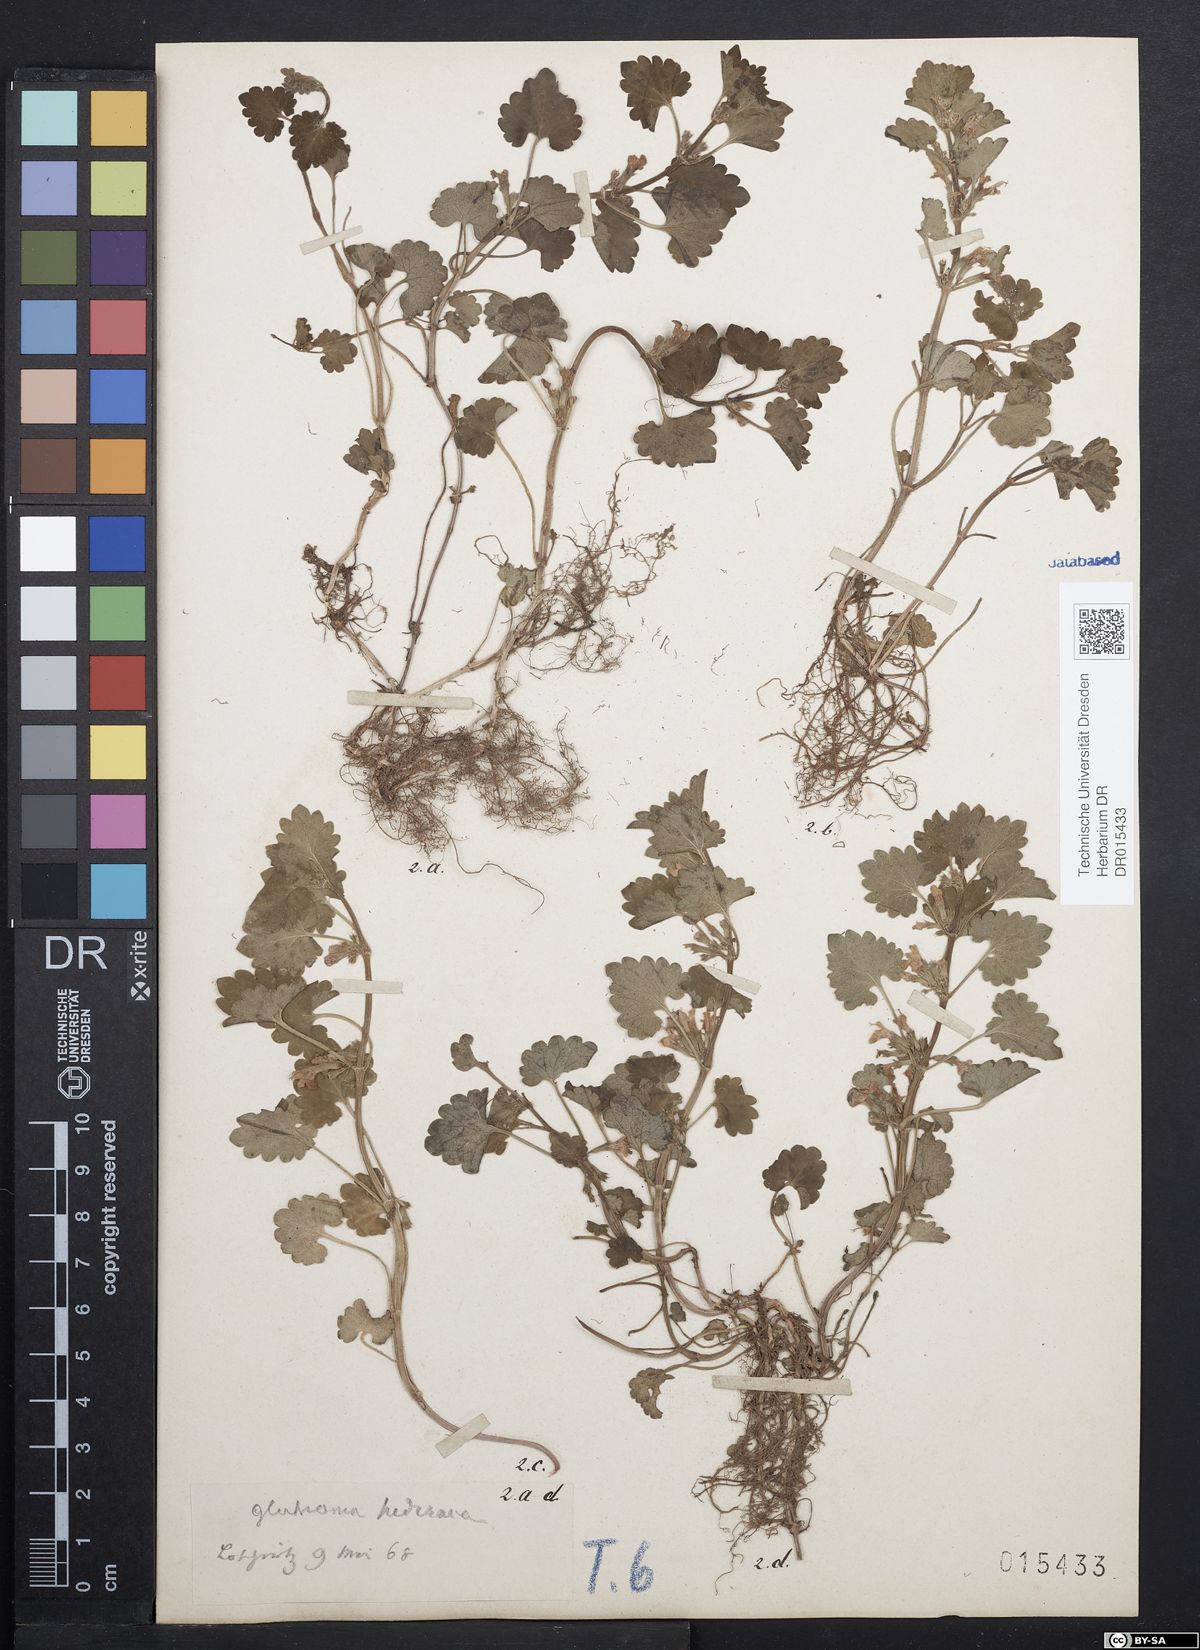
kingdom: Plantae
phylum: Tracheophyta
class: Magnoliopsida
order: Lamiales
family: Lamiaceae
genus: Glechoma
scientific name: Glechoma hederacea
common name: Ground ivy
